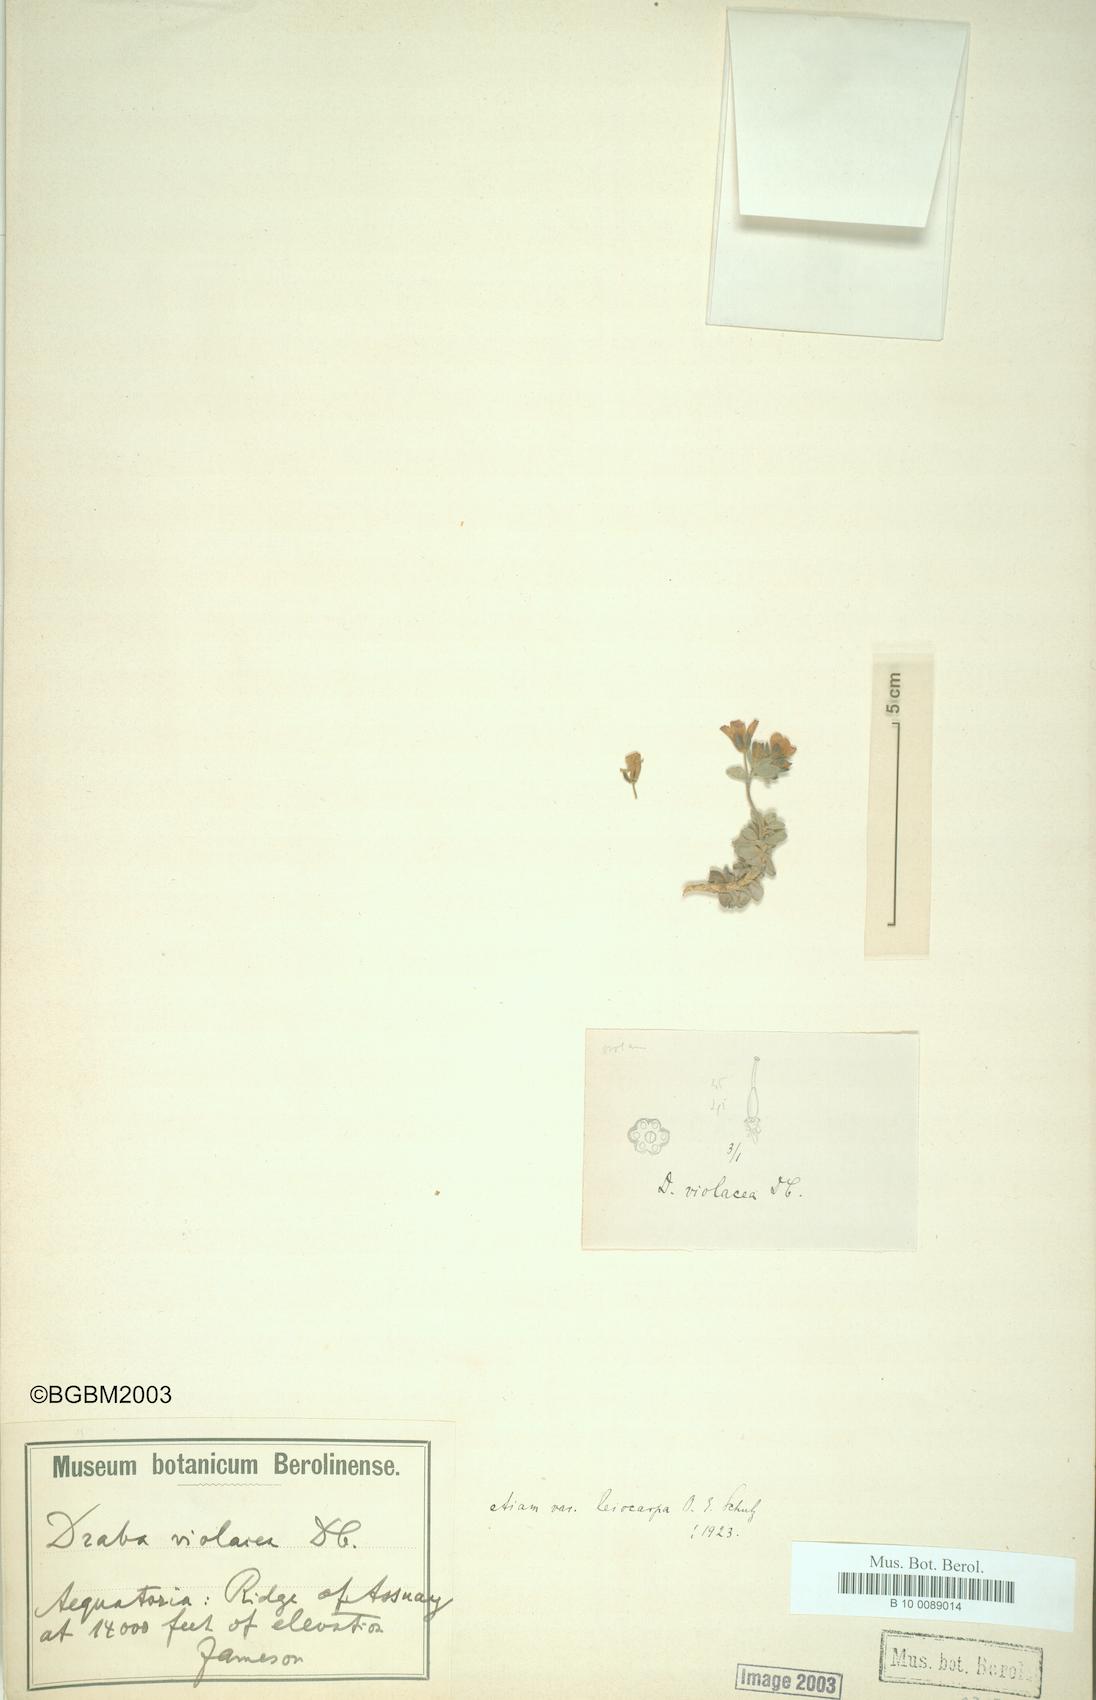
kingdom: Plantae
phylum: Tracheophyta
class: Magnoliopsida
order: Brassicales
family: Brassicaceae
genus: Draba
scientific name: Draba violacea
